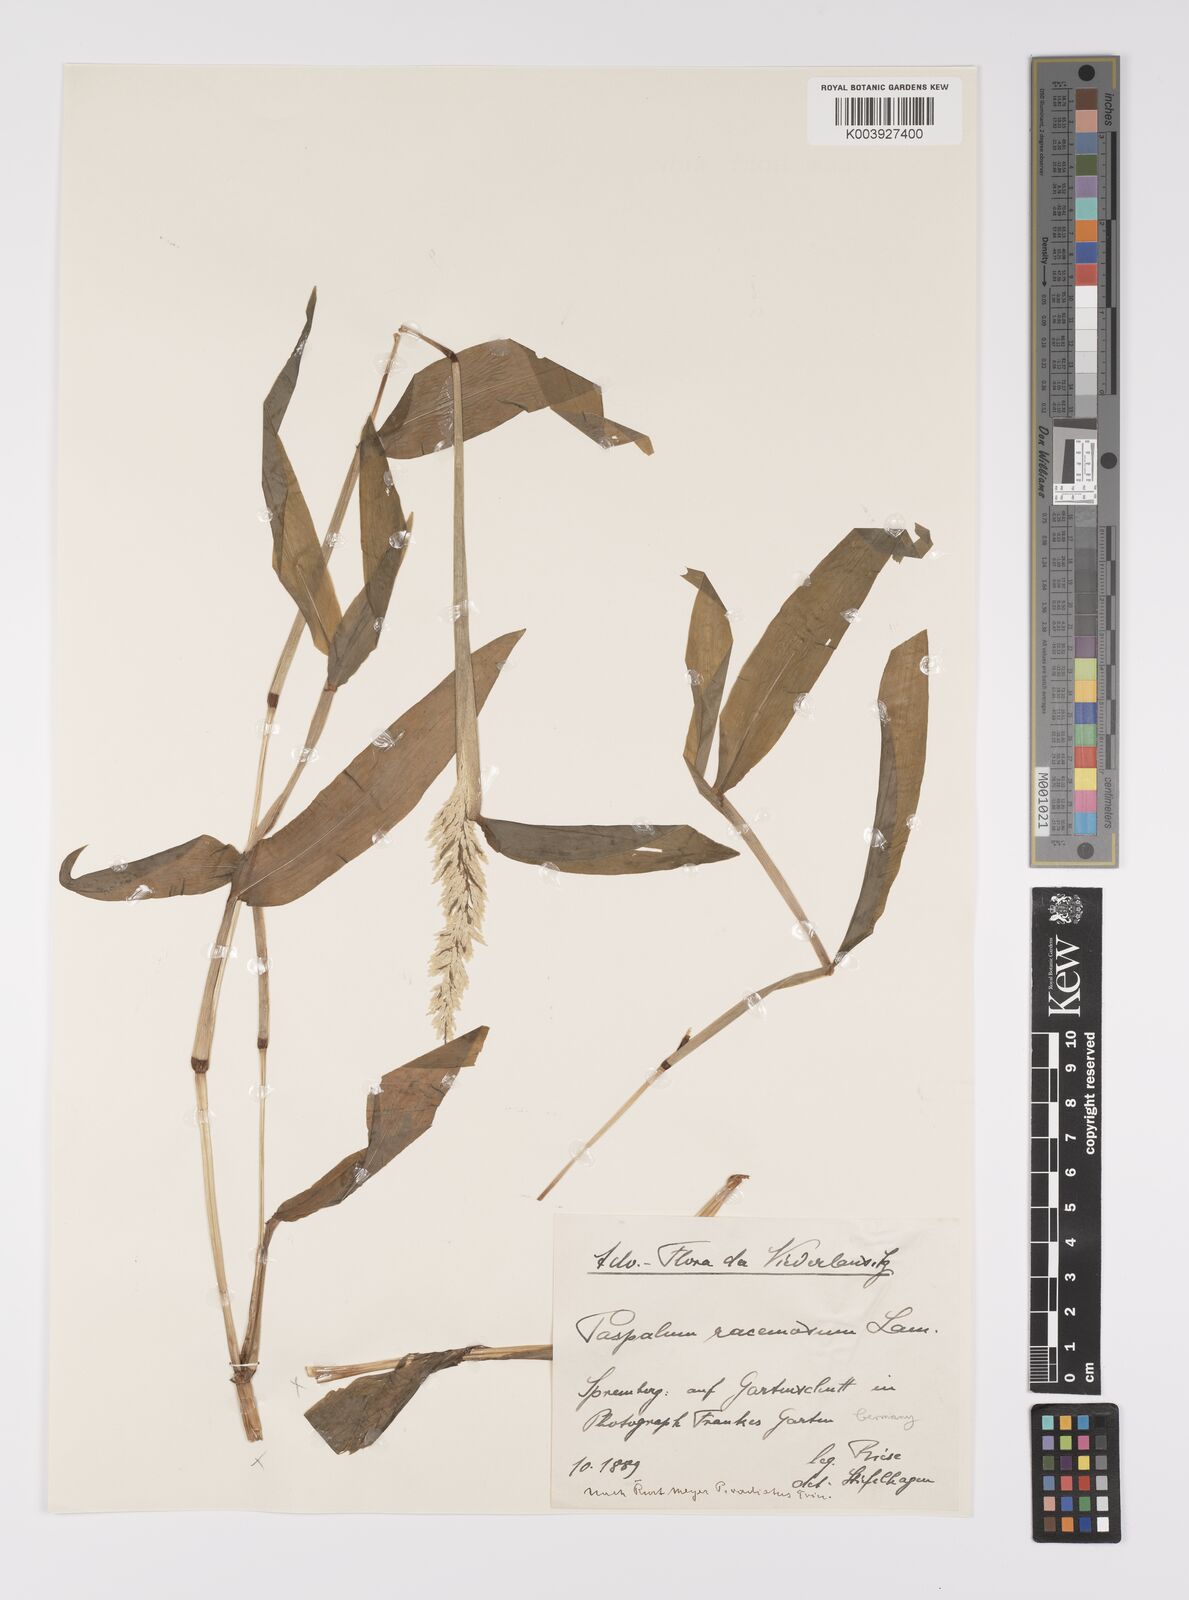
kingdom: Plantae
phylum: Tracheophyta
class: Liliopsida
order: Poales
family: Poaceae
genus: Paspalum
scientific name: Paspalum racemosum
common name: Peruvian paspalum
